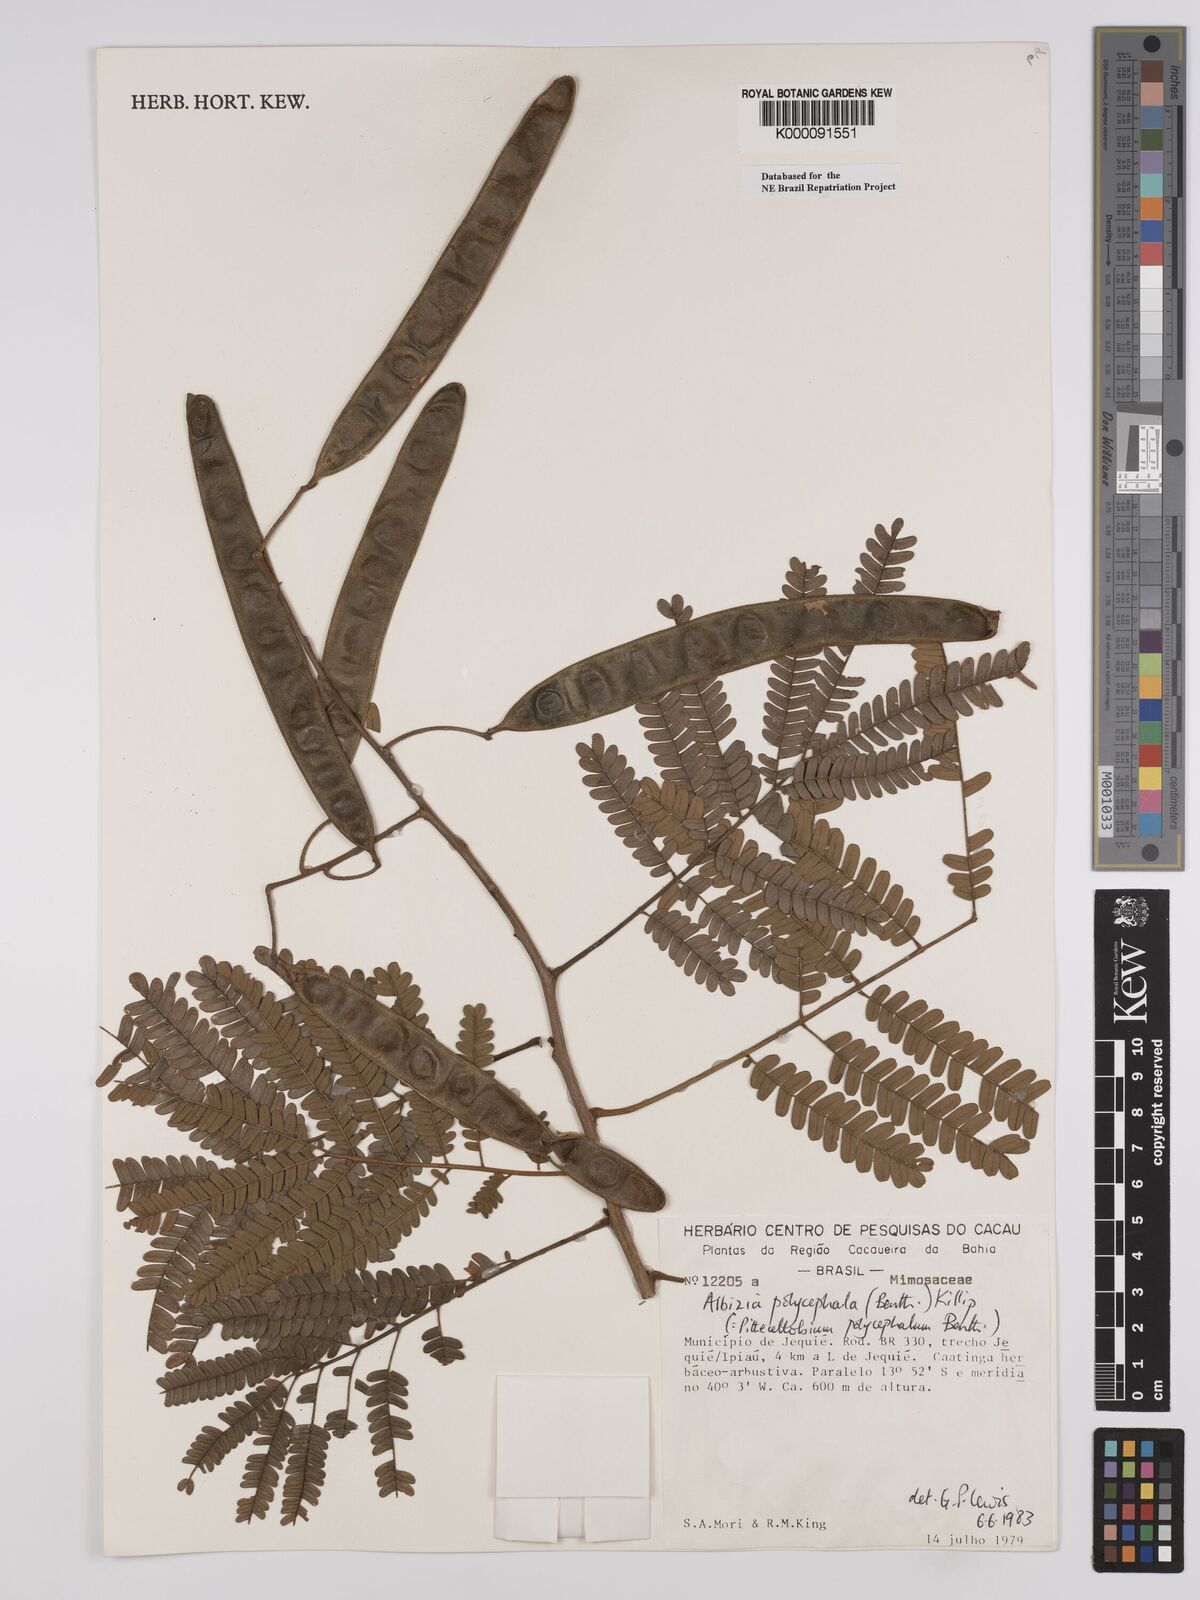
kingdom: Plantae
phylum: Tracheophyta
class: Magnoliopsida
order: Fabales
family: Fabaceae
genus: Albizia
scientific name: Albizia polycephala
